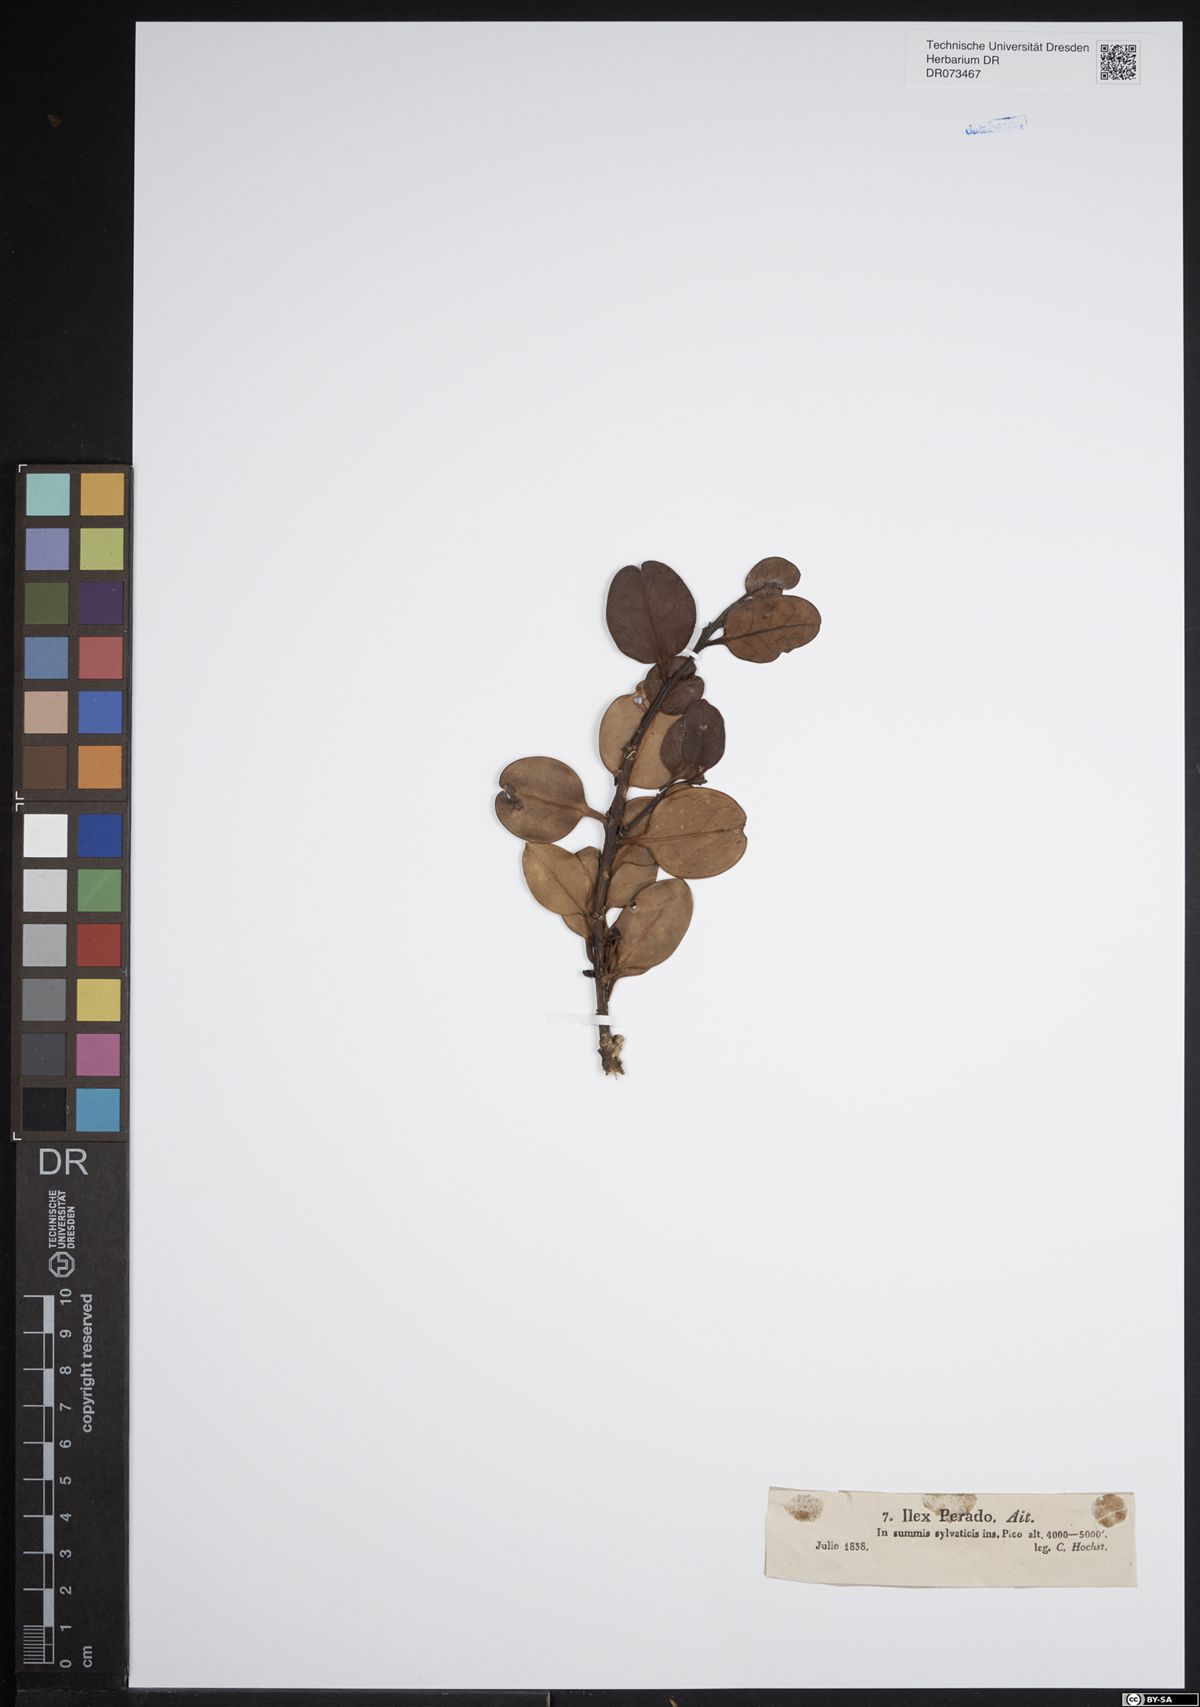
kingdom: Plantae
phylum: Tracheophyta
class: Magnoliopsida
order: Aquifoliales
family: Aquifoliaceae
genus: Ilex
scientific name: Ilex perado
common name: Madeira holly
